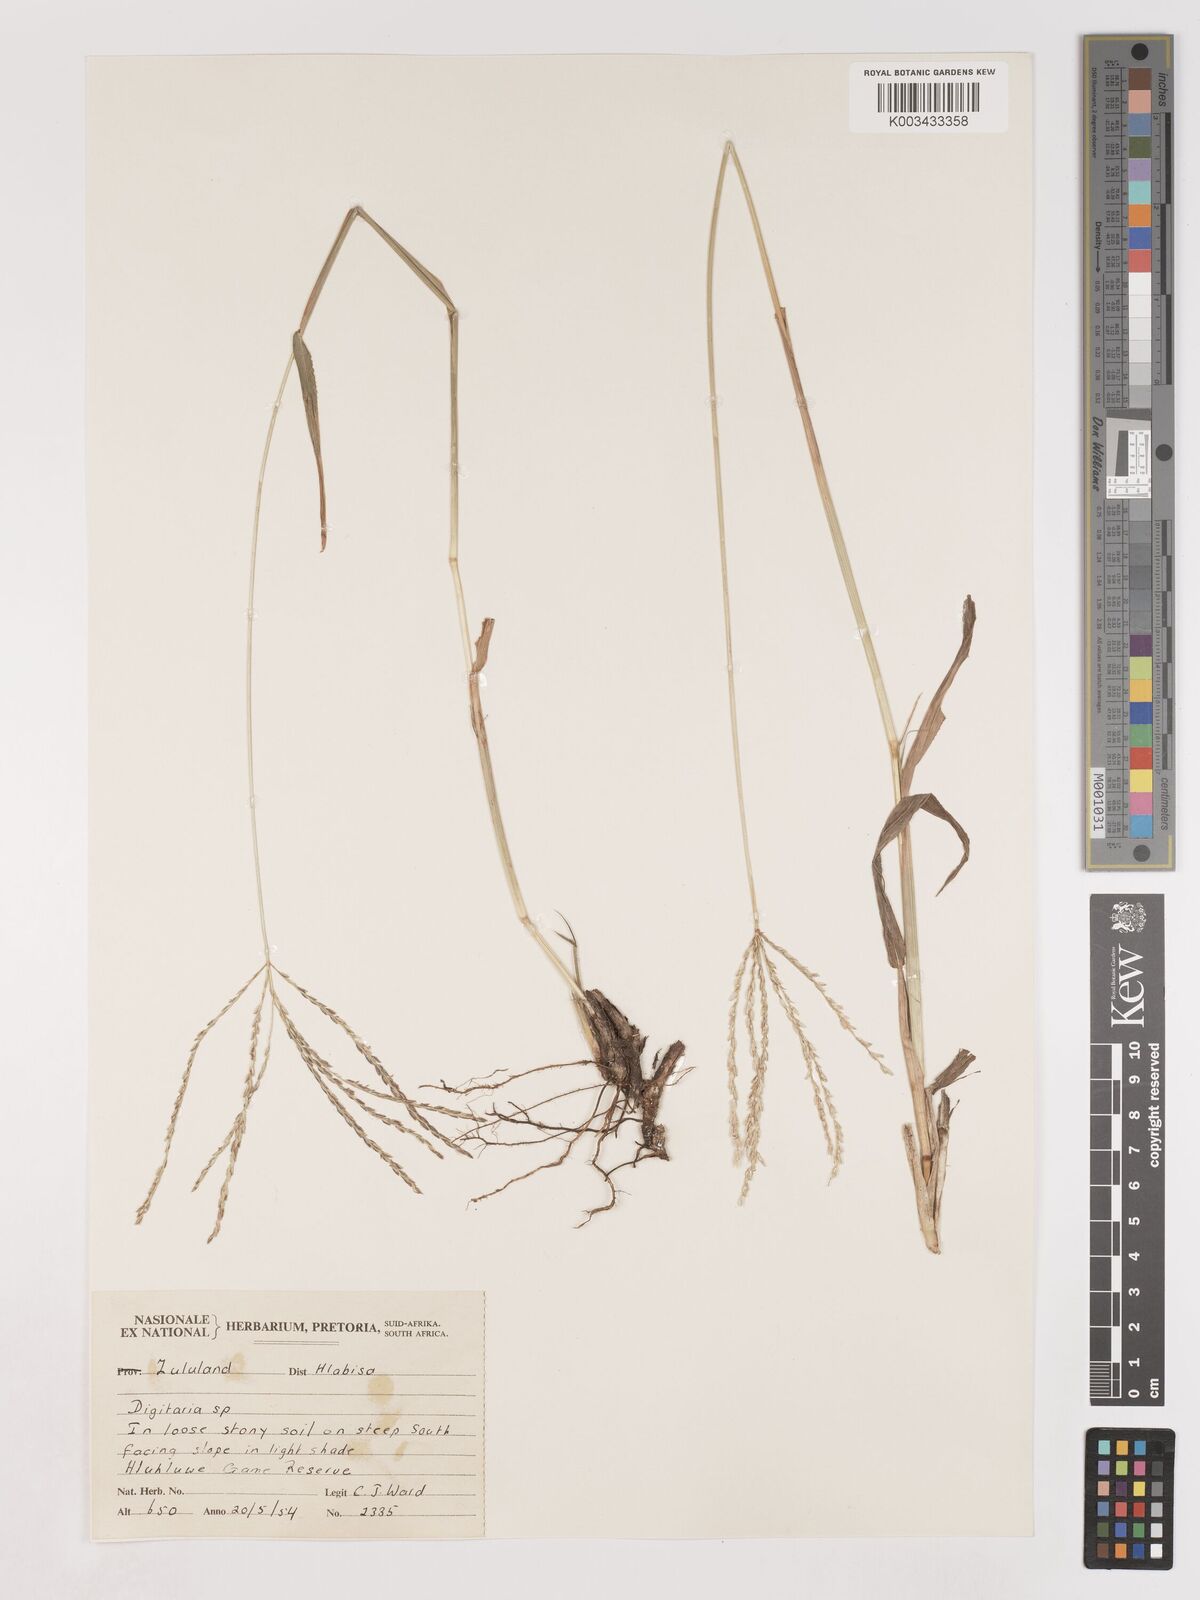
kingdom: Plantae
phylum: Tracheophyta
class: Liliopsida
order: Poales
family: Poaceae
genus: Digitaria
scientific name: Digitaria eriantha
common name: Digitgrass
